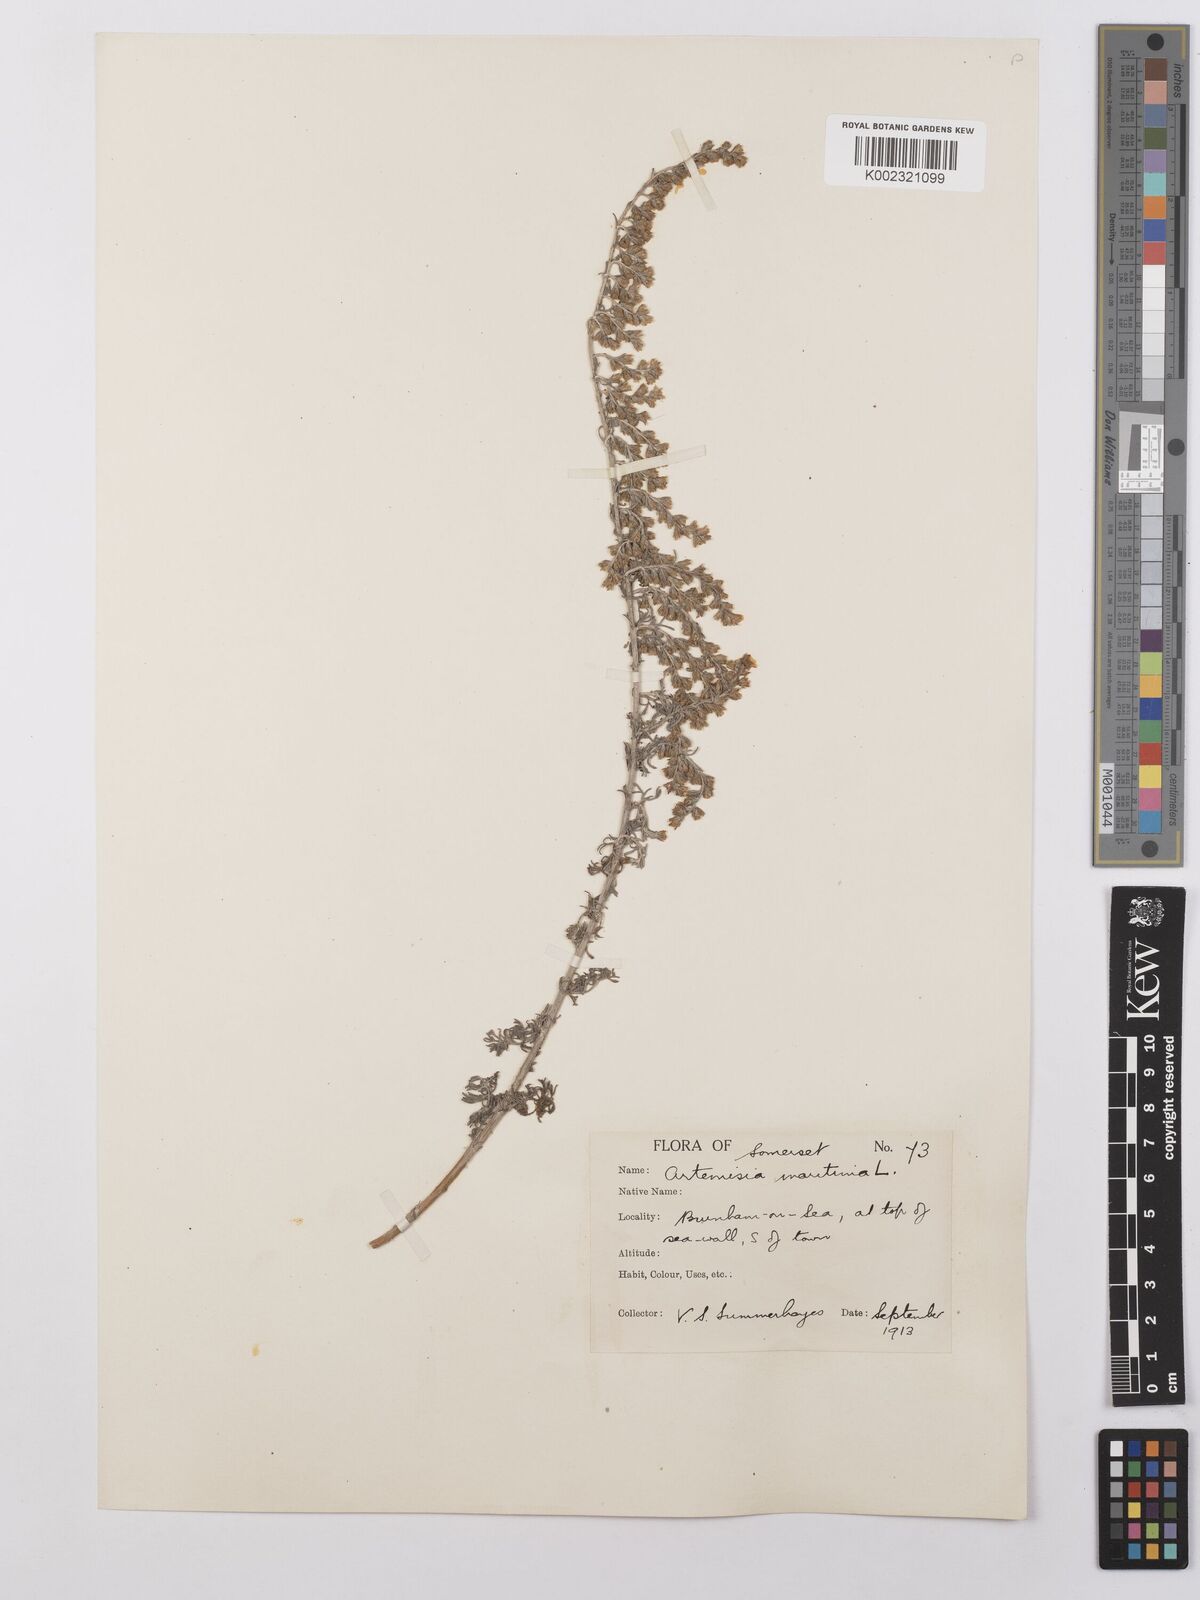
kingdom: Plantae
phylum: Tracheophyta
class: Magnoliopsida
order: Asterales
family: Asteraceae
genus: Artemisia
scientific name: Artemisia maritima
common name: Wormseed
